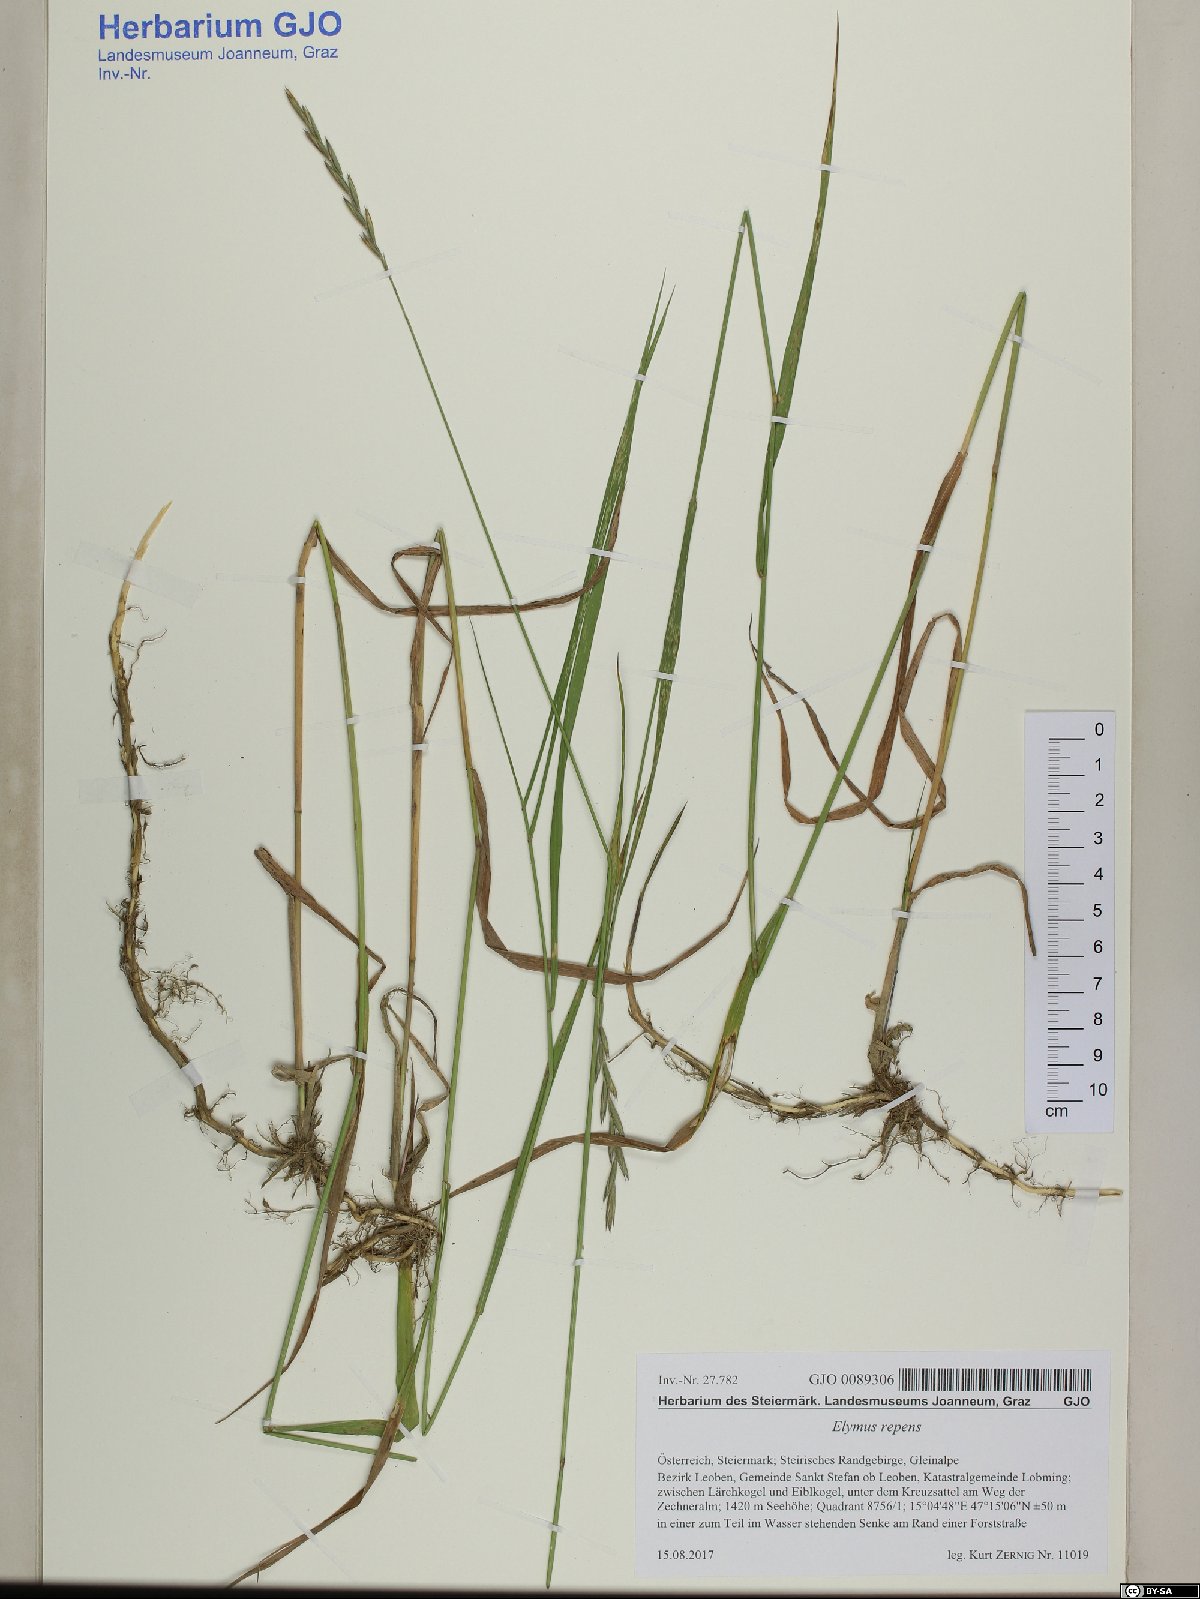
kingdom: Plantae
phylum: Tracheophyta
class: Liliopsida
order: Poales
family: Poaceae
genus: Elymus
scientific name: Elymus repens
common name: Quackgrass
